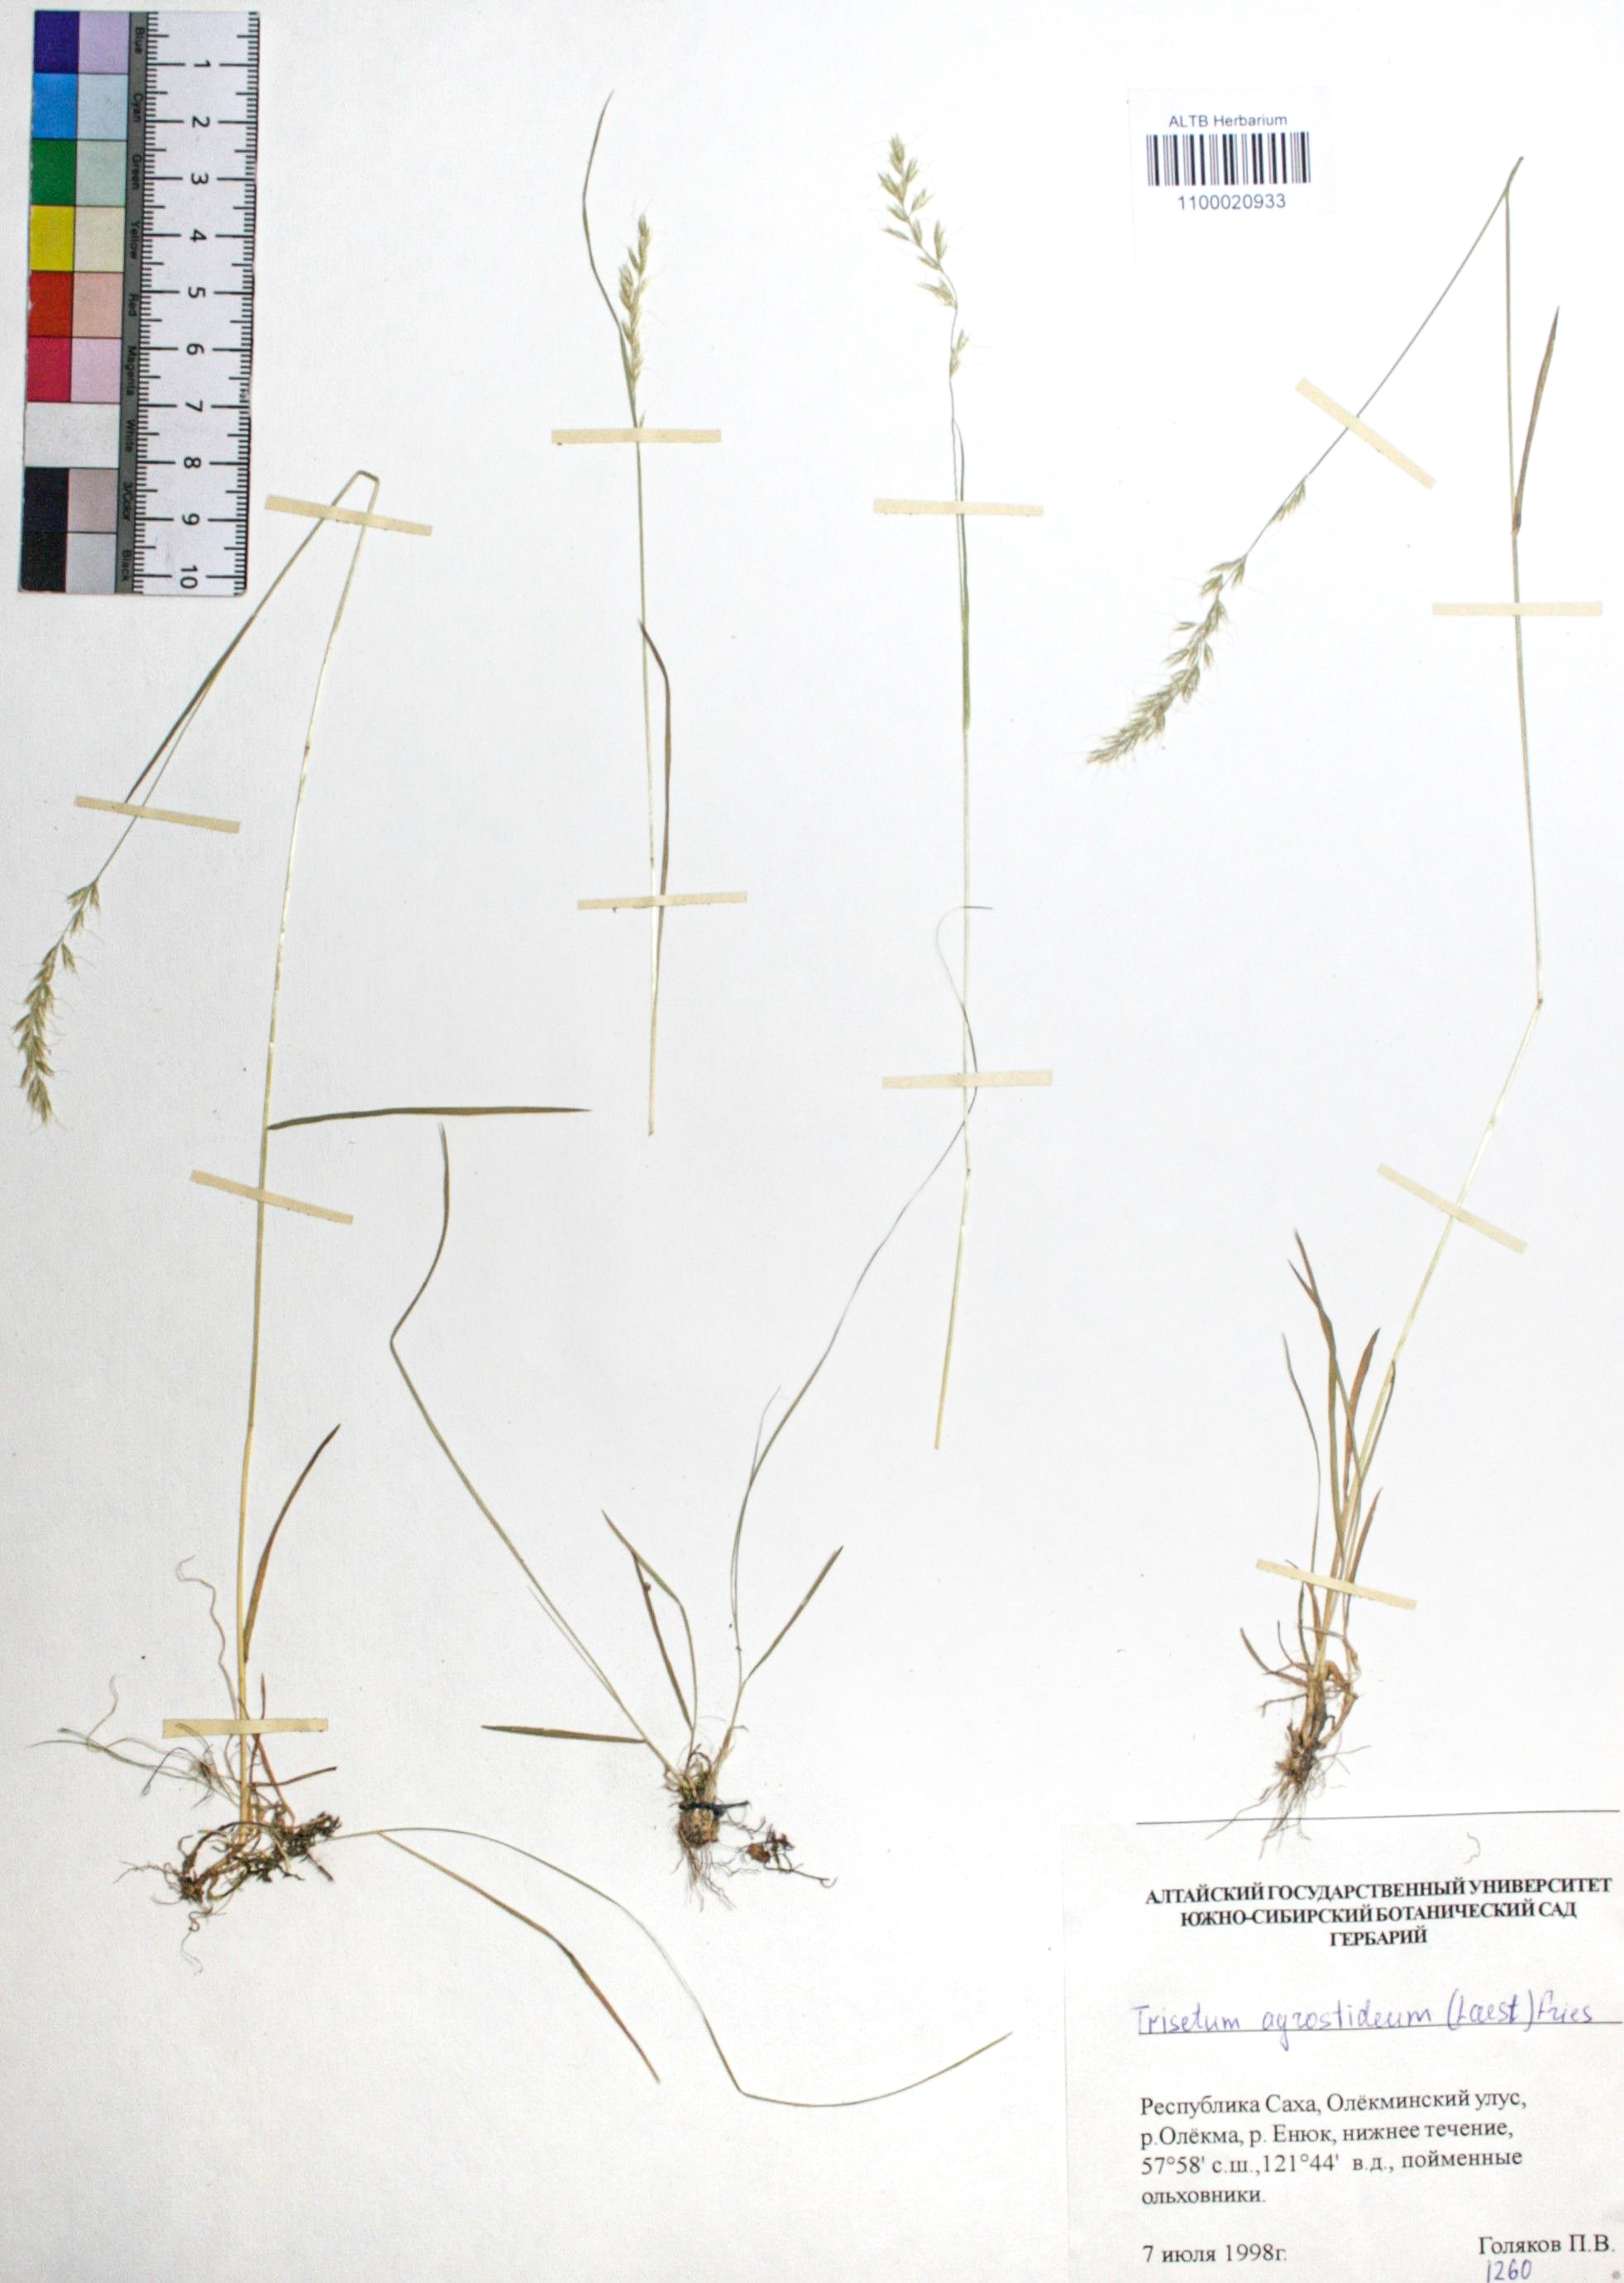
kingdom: Plantae
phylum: Tracheophyta
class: Liliopsida
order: Poales
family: Poaceae
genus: Koeleria
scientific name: Koeleria subalpestris
